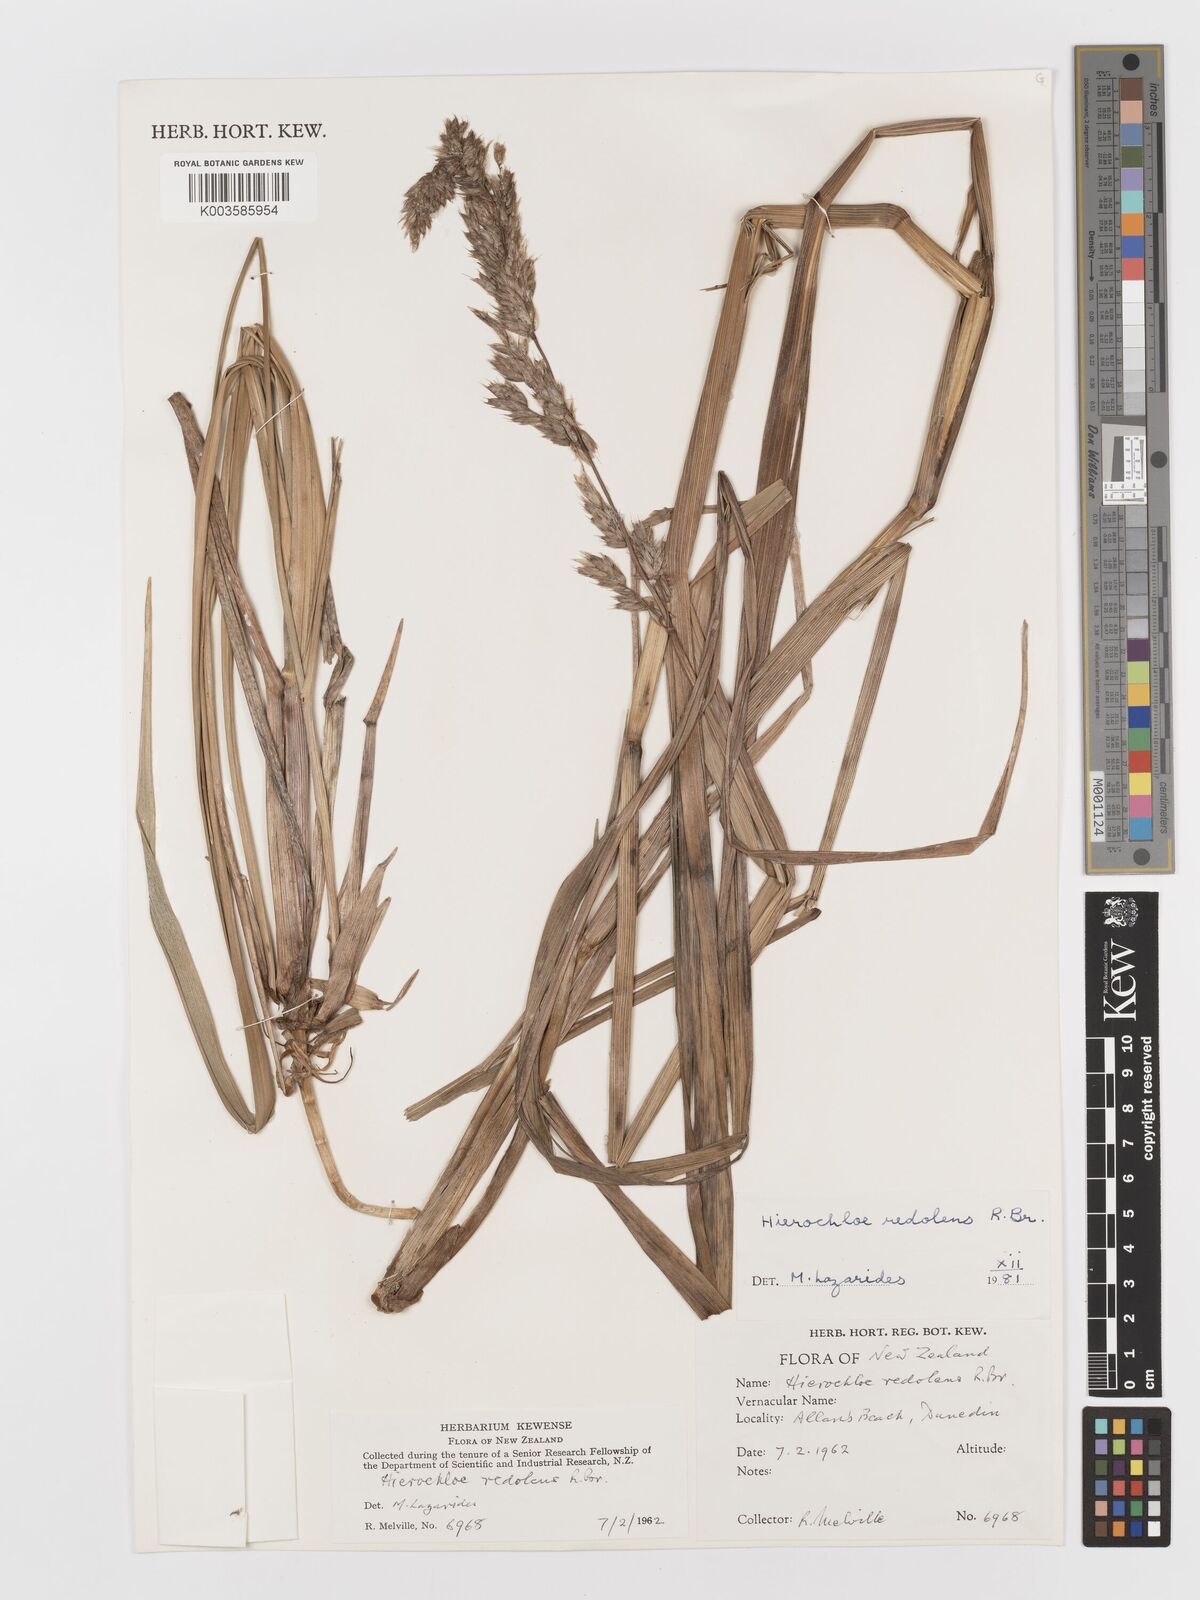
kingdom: Plantae
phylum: Tracheophyta
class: Liliopsida
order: Poales
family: Poaceae
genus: Anthoxanthum
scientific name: Anthoxanthum redolens
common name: Sweet holy grass
